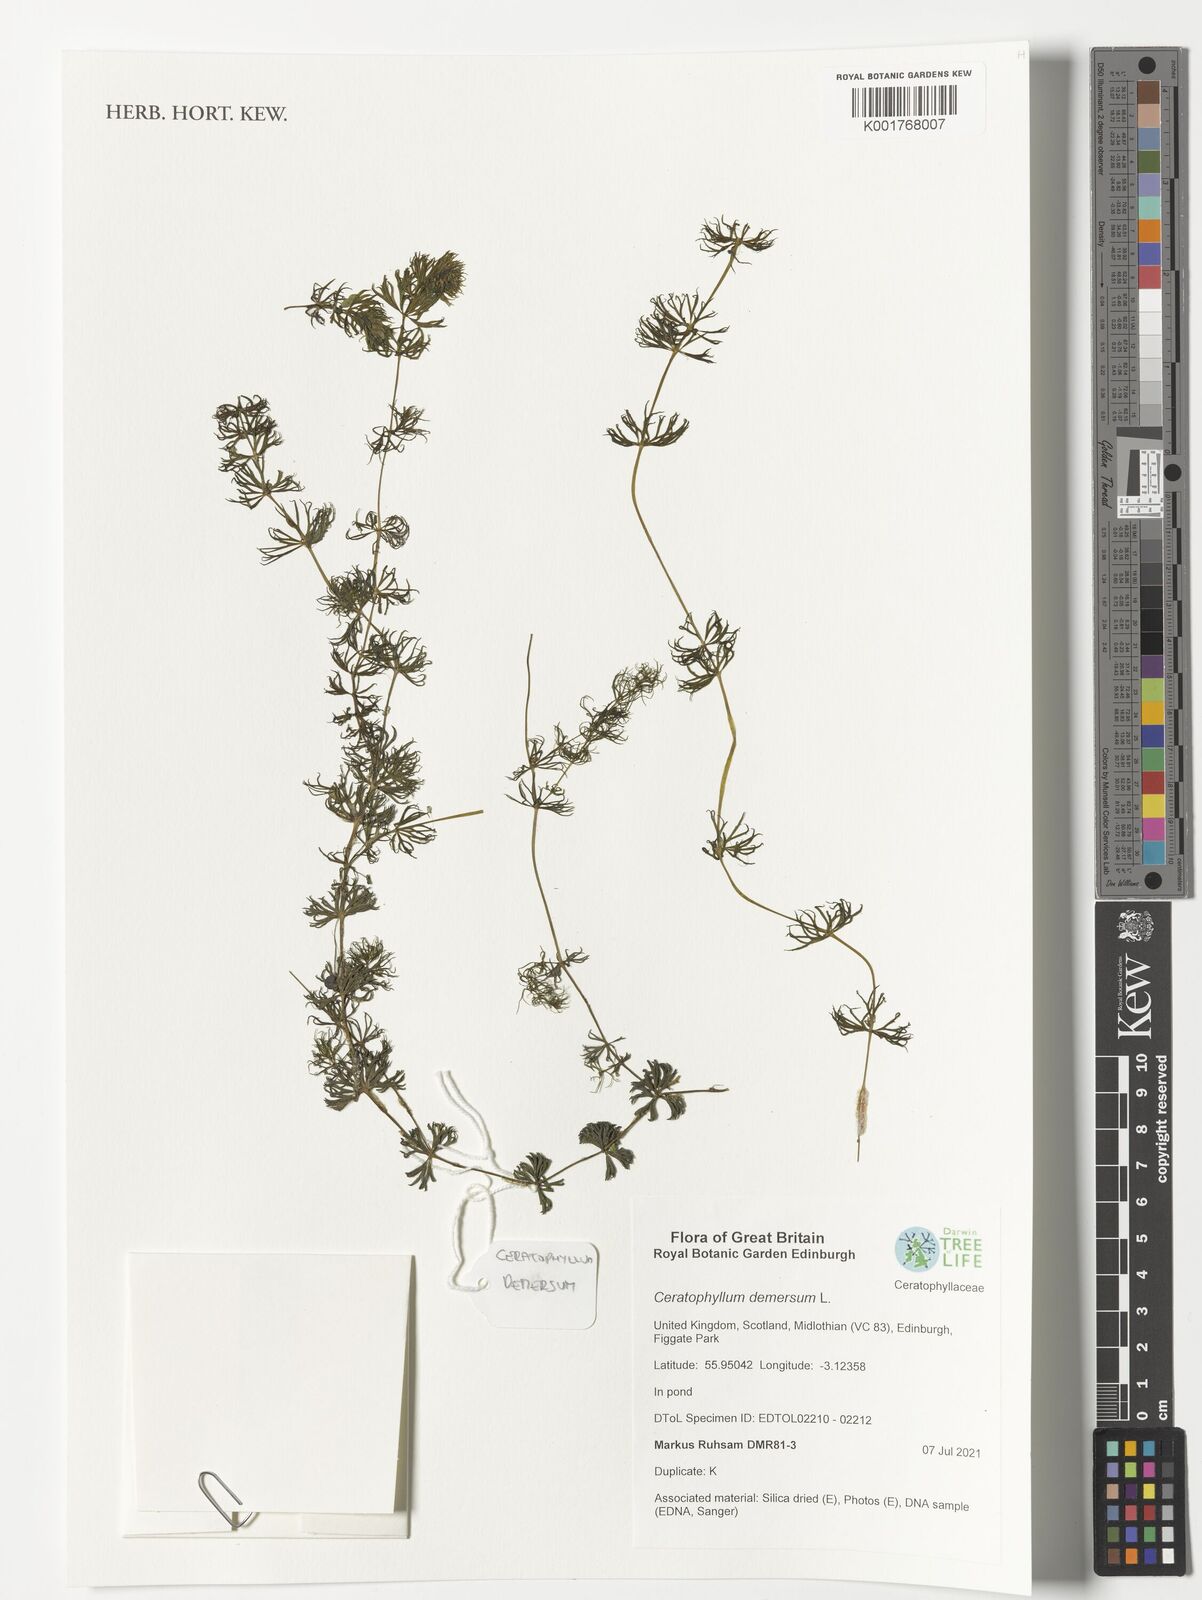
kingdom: Plantae
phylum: Tracheophyta
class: Magnoliopsida
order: Ceratophyllales
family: Ceratophyllaceae
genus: Ceratophyllum
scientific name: Ceratophyllum demersum
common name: Rigid hornwort
